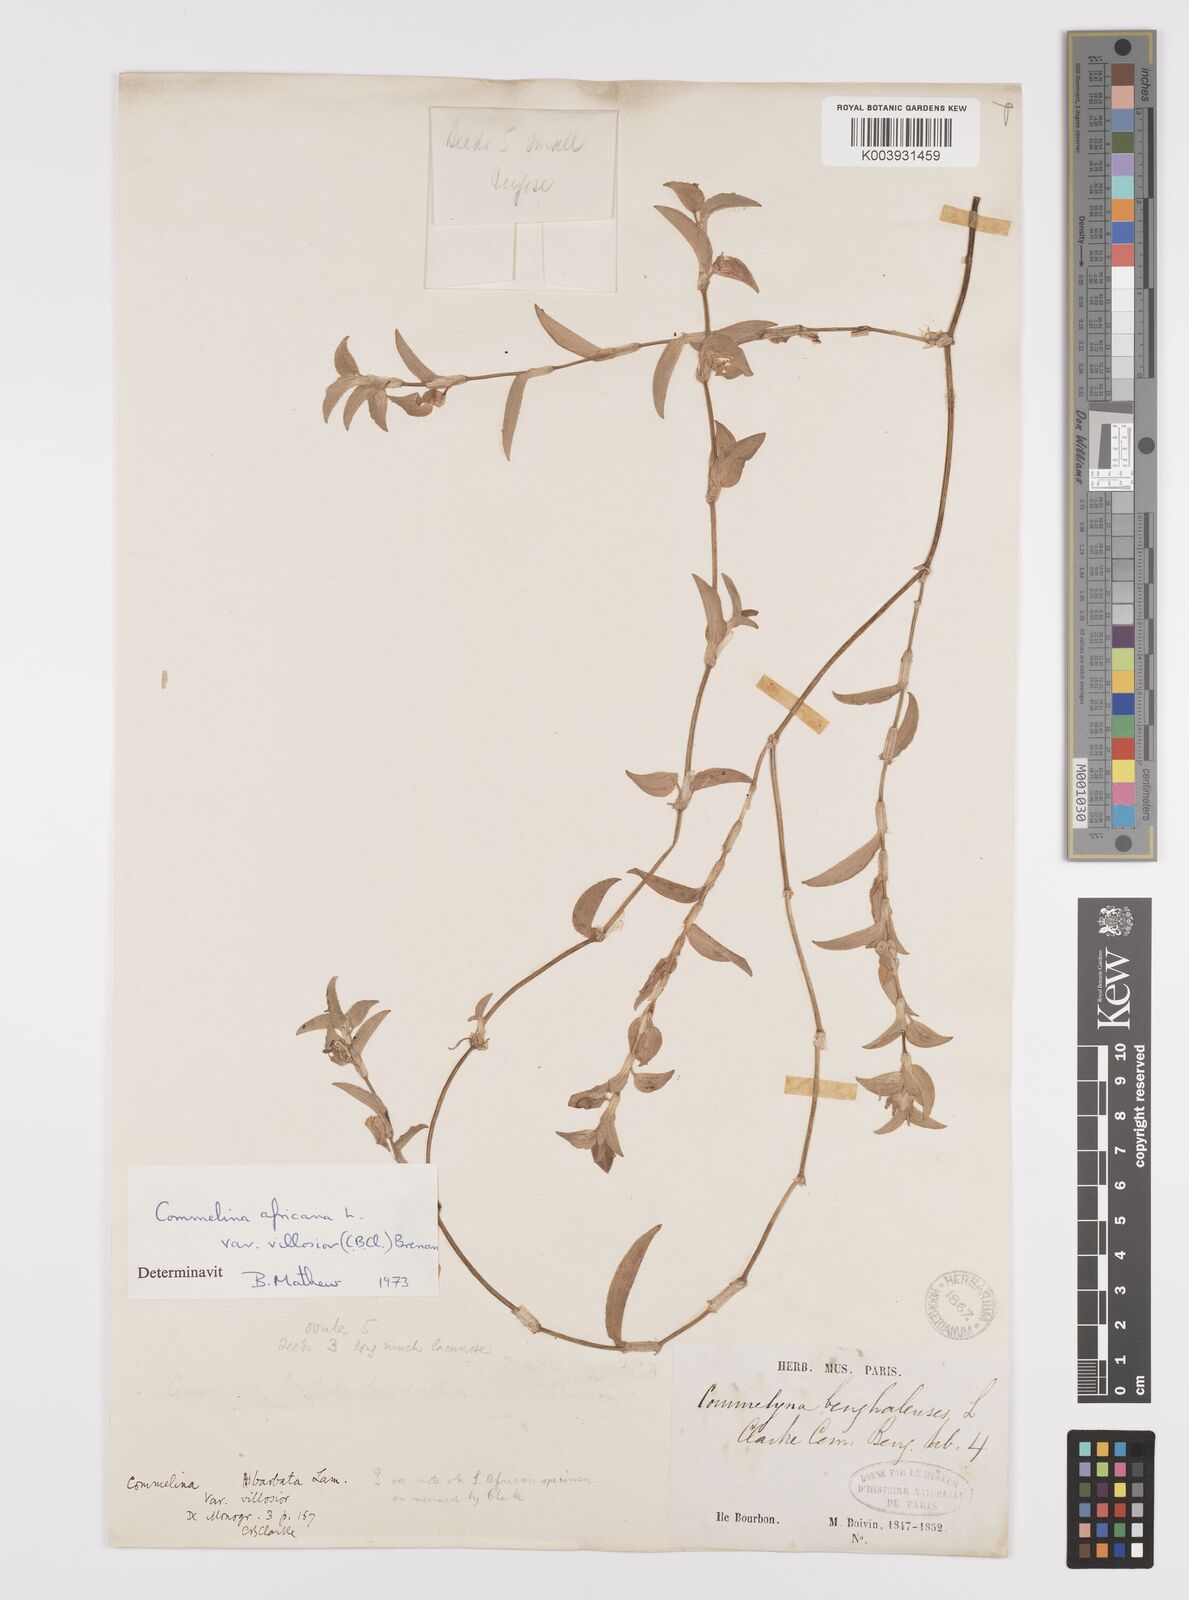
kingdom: Plantae
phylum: Tracheophyta
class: Liliopsida
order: Commelinales
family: Commelinaceae
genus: Commelina
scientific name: Commelina africana
